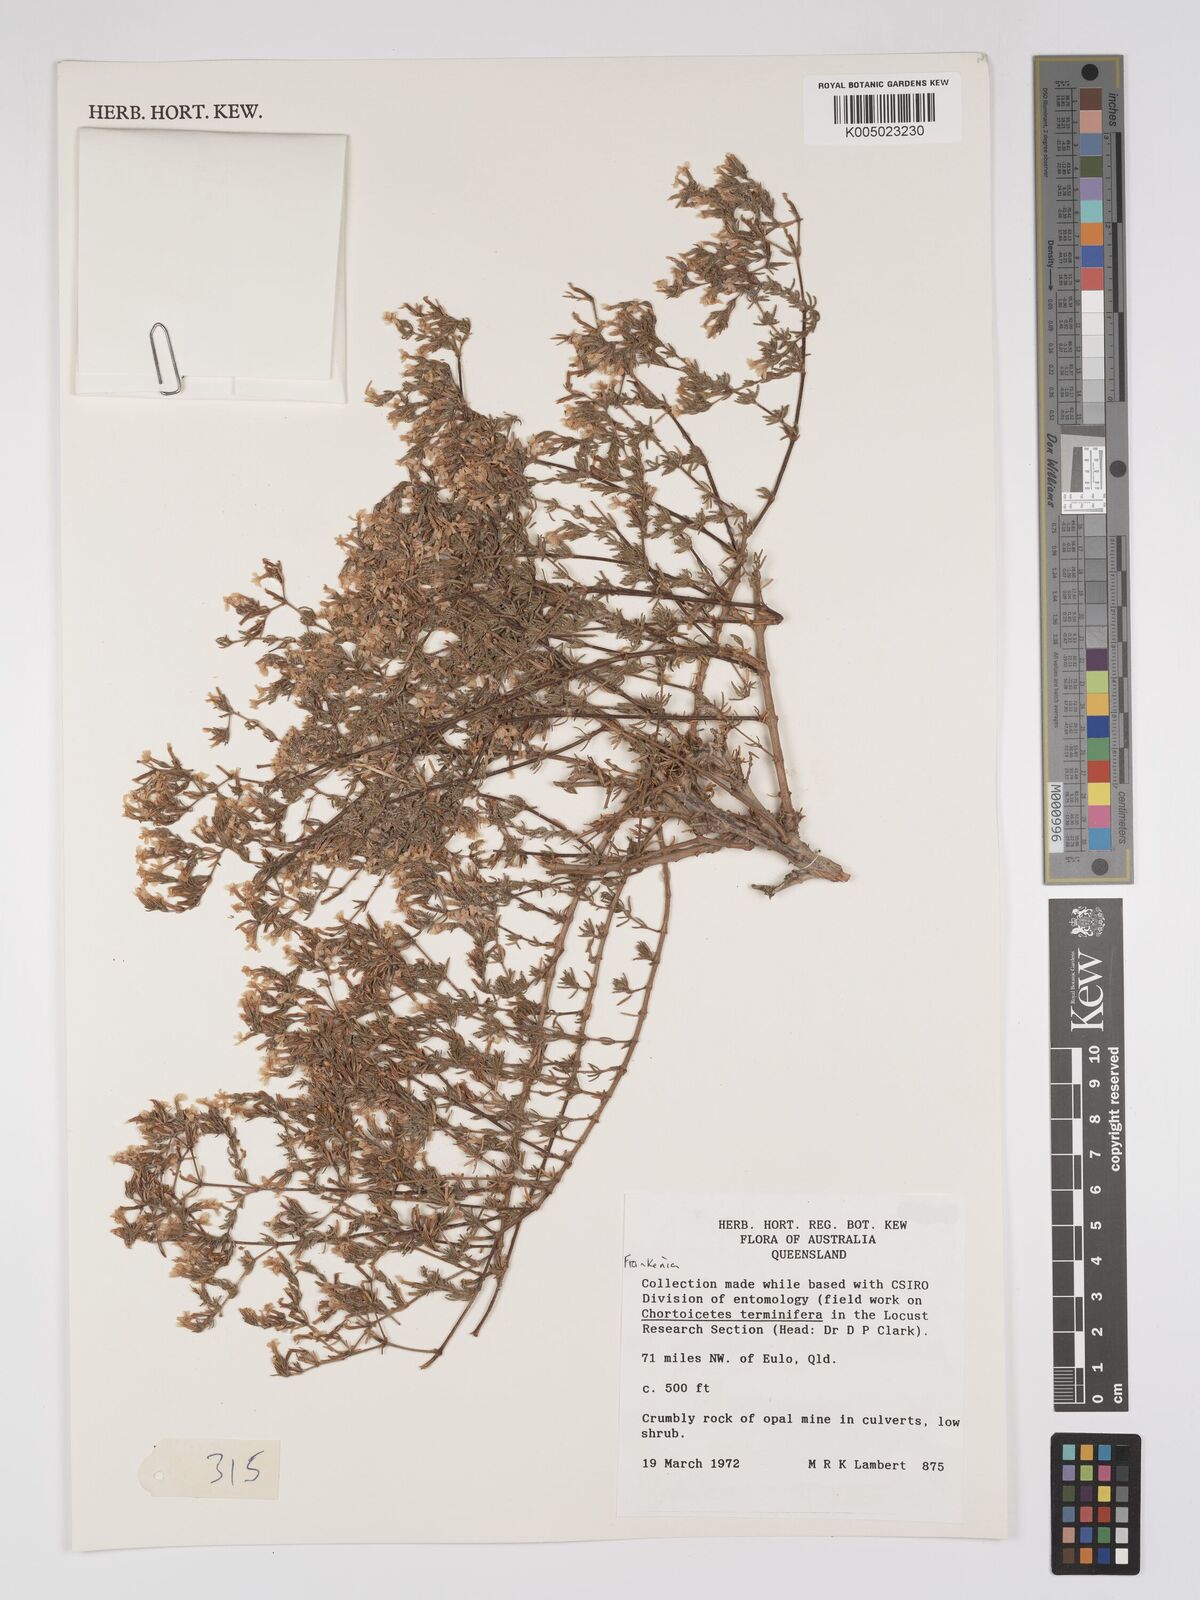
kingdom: Plantae
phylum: Tracheophyta
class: Magnoliopsida
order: Caryophyllales
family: Frankeniaceae
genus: Frankenia
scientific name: Frankenia
